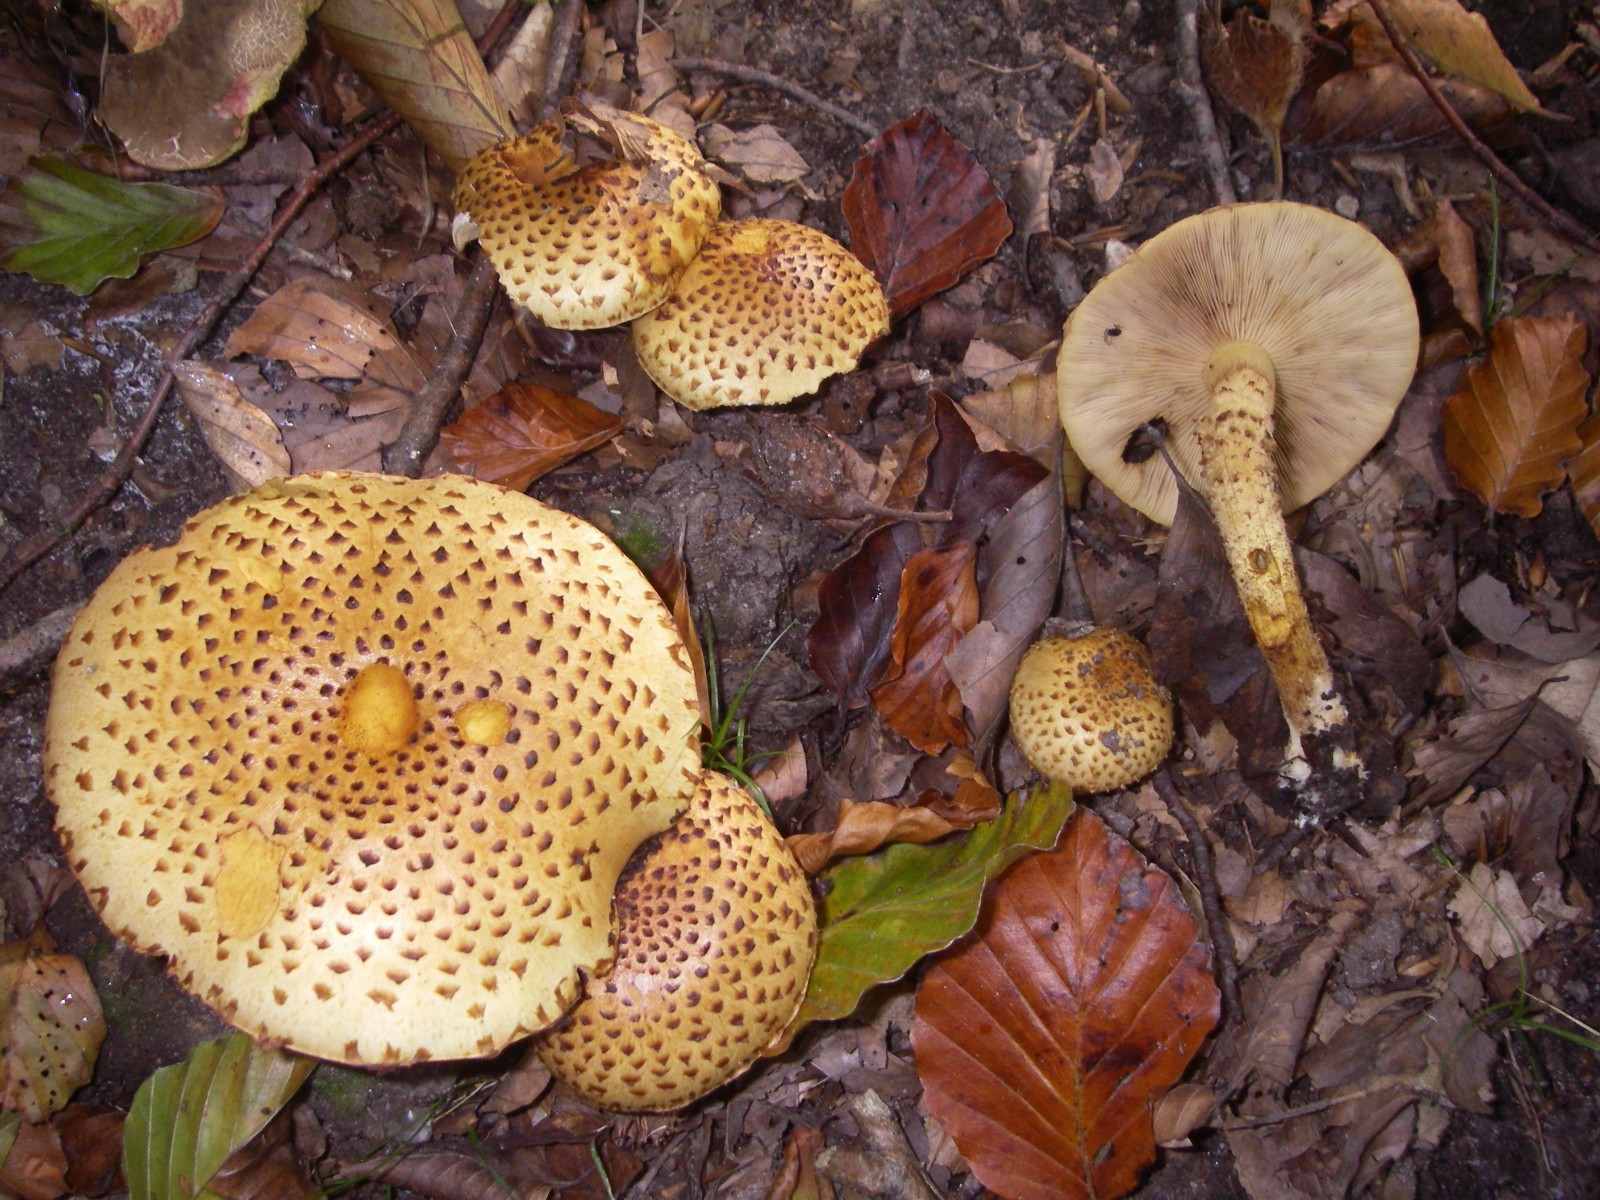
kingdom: Fungi
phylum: Basidiomycota
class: Agaricomycetes
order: Agaricales
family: Strophariaceae
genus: Pholiota
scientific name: Pholiota jahnii
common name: slimet skælhat
